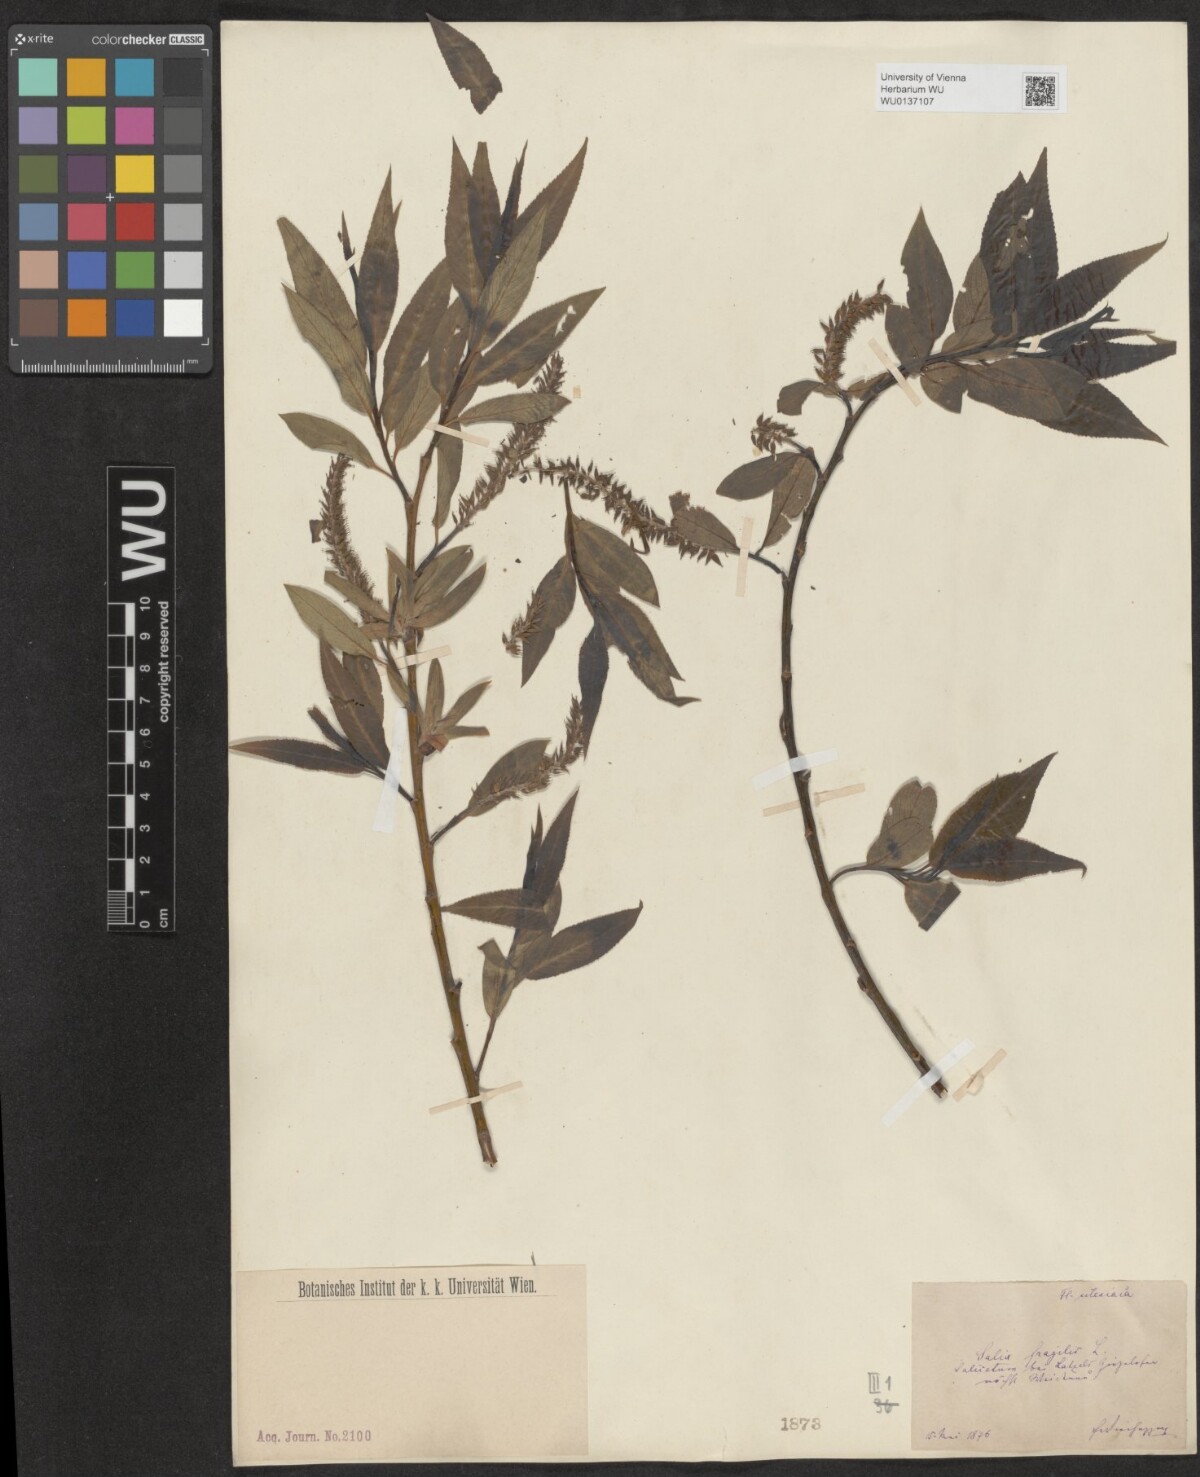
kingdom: Plantae
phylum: Tracheophyta
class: Magnoliopsida
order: Malpighiales
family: Salicaceae
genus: Salix
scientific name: Salix fragilis
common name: Crack willow
